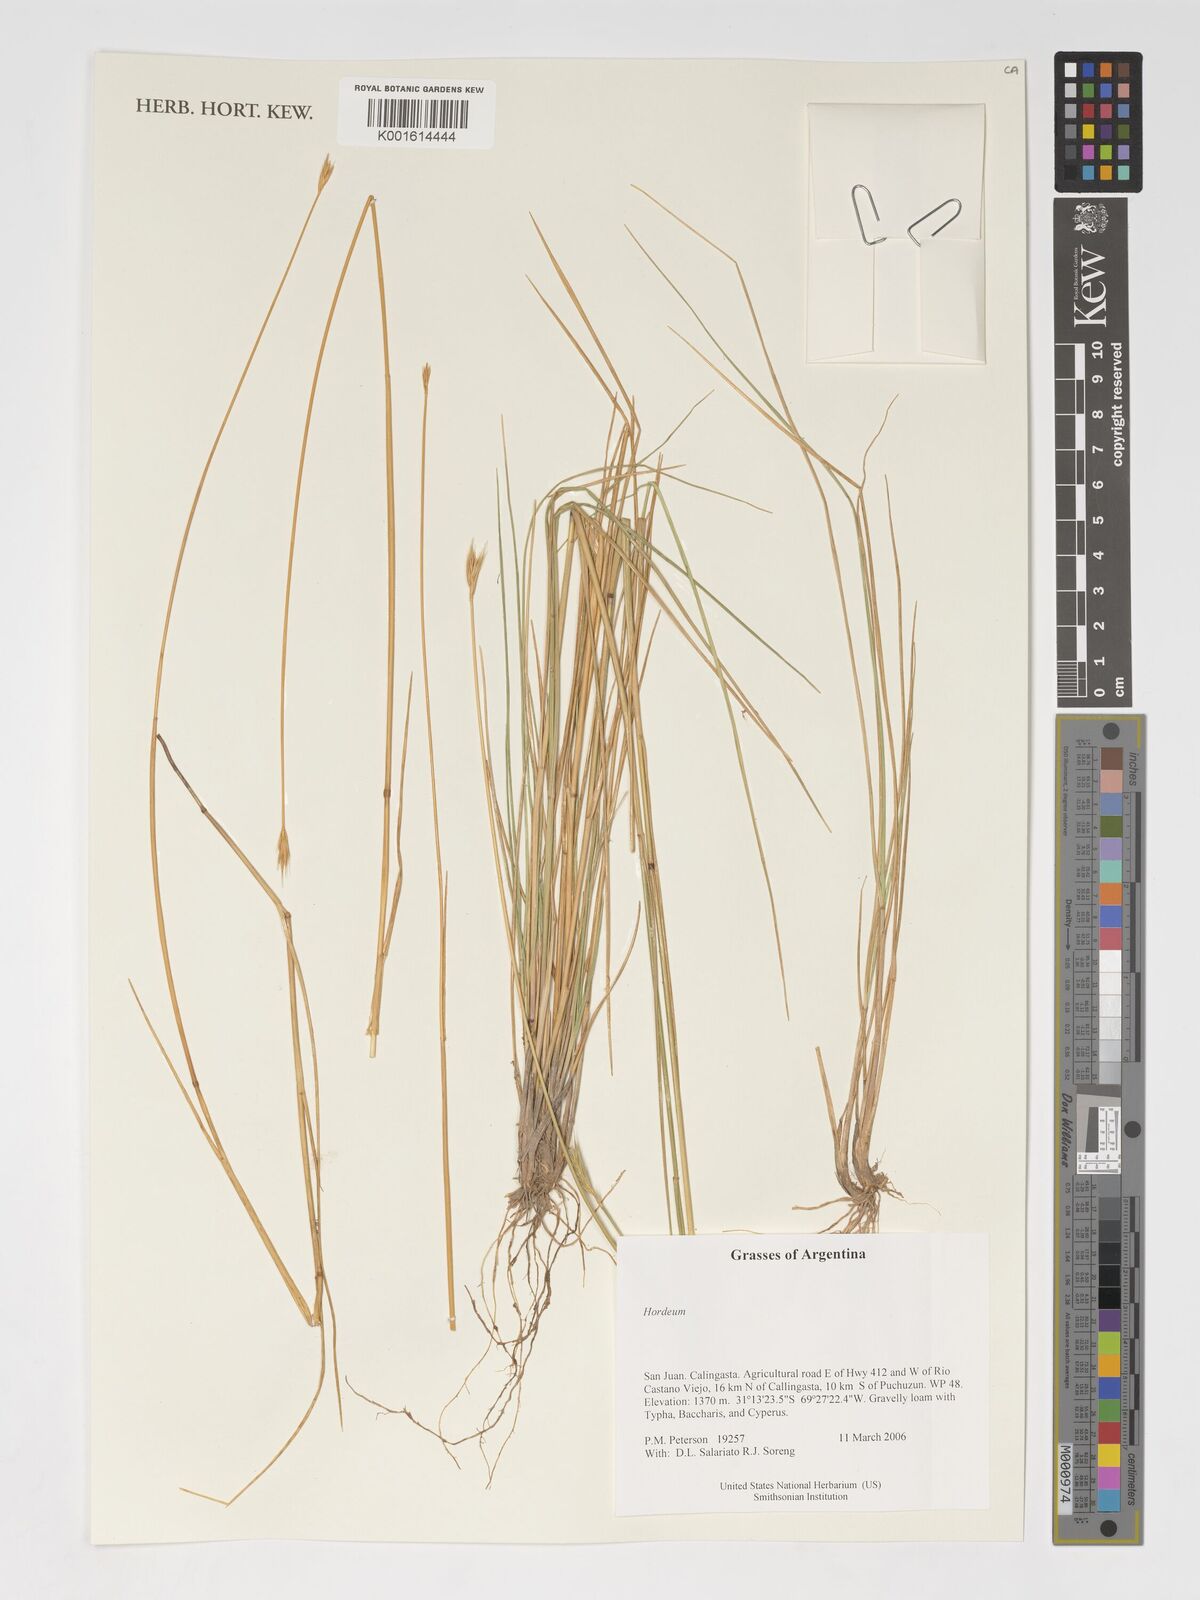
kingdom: Plantae
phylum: Tracheophyta
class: Liliopsida
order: Poales
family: Poaceae
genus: Hordeum
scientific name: Hordeum
